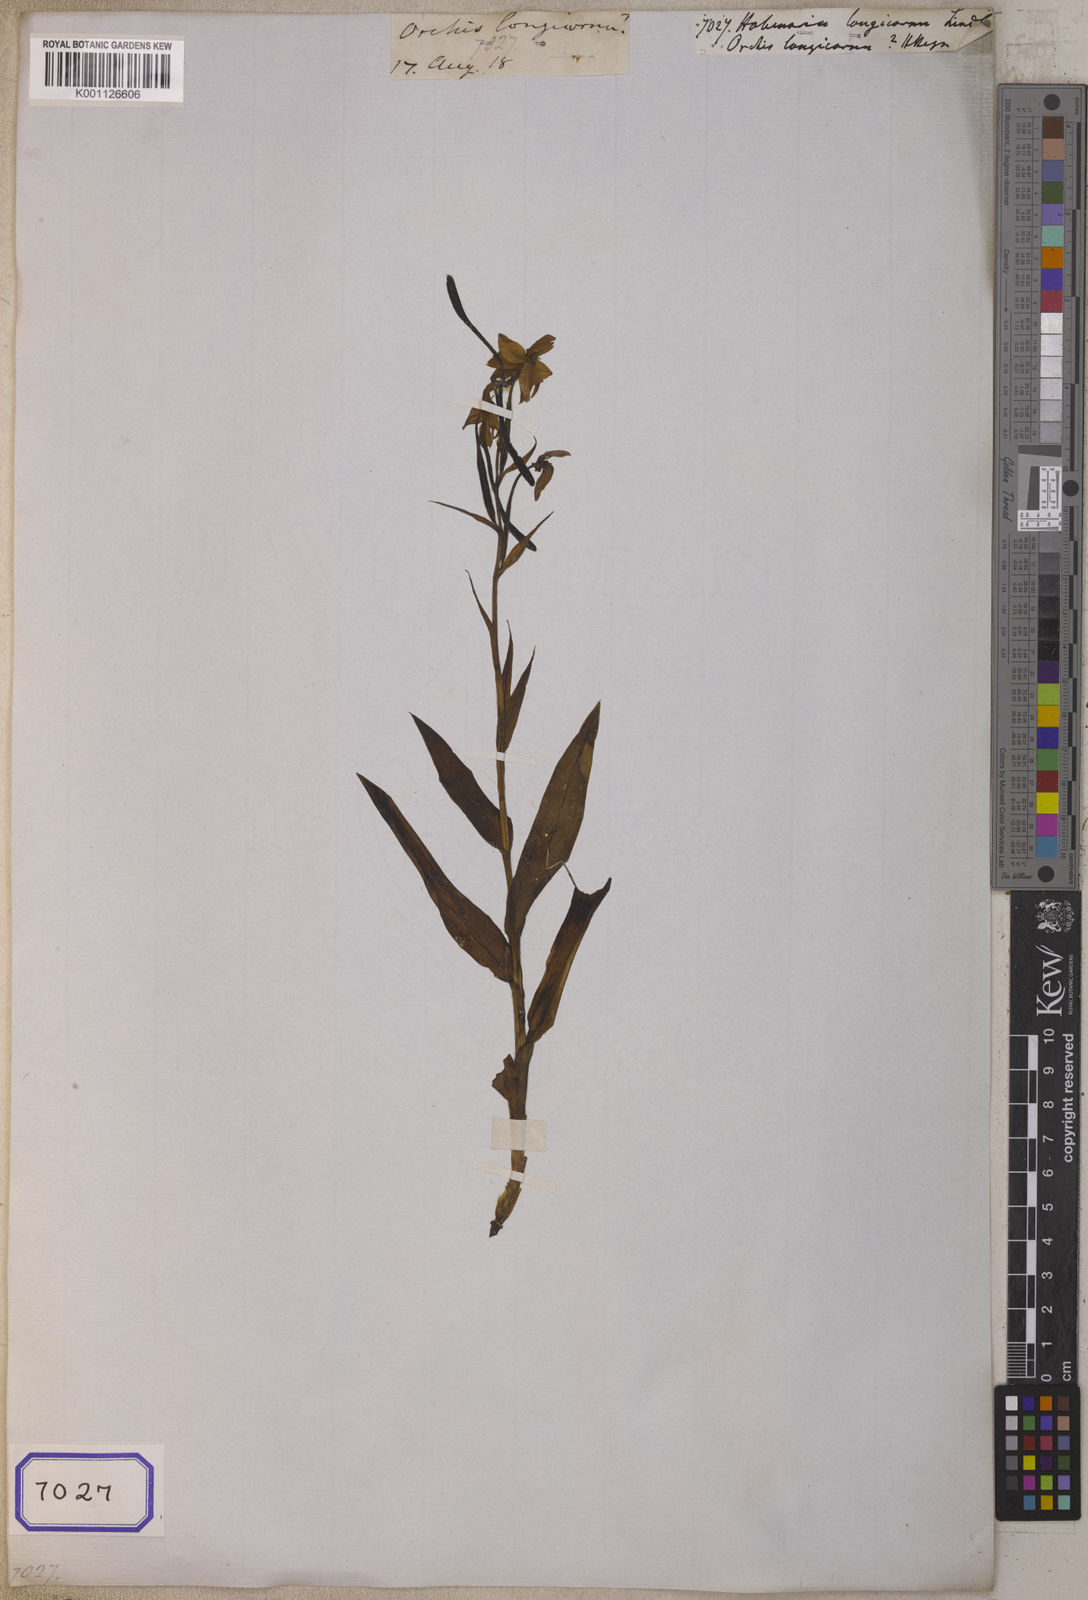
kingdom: Plantae
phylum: Tracheophyta
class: Liliopsida
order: Asparagales
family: Orchidaceae
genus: Habenaria
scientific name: Habenaria longicornu
